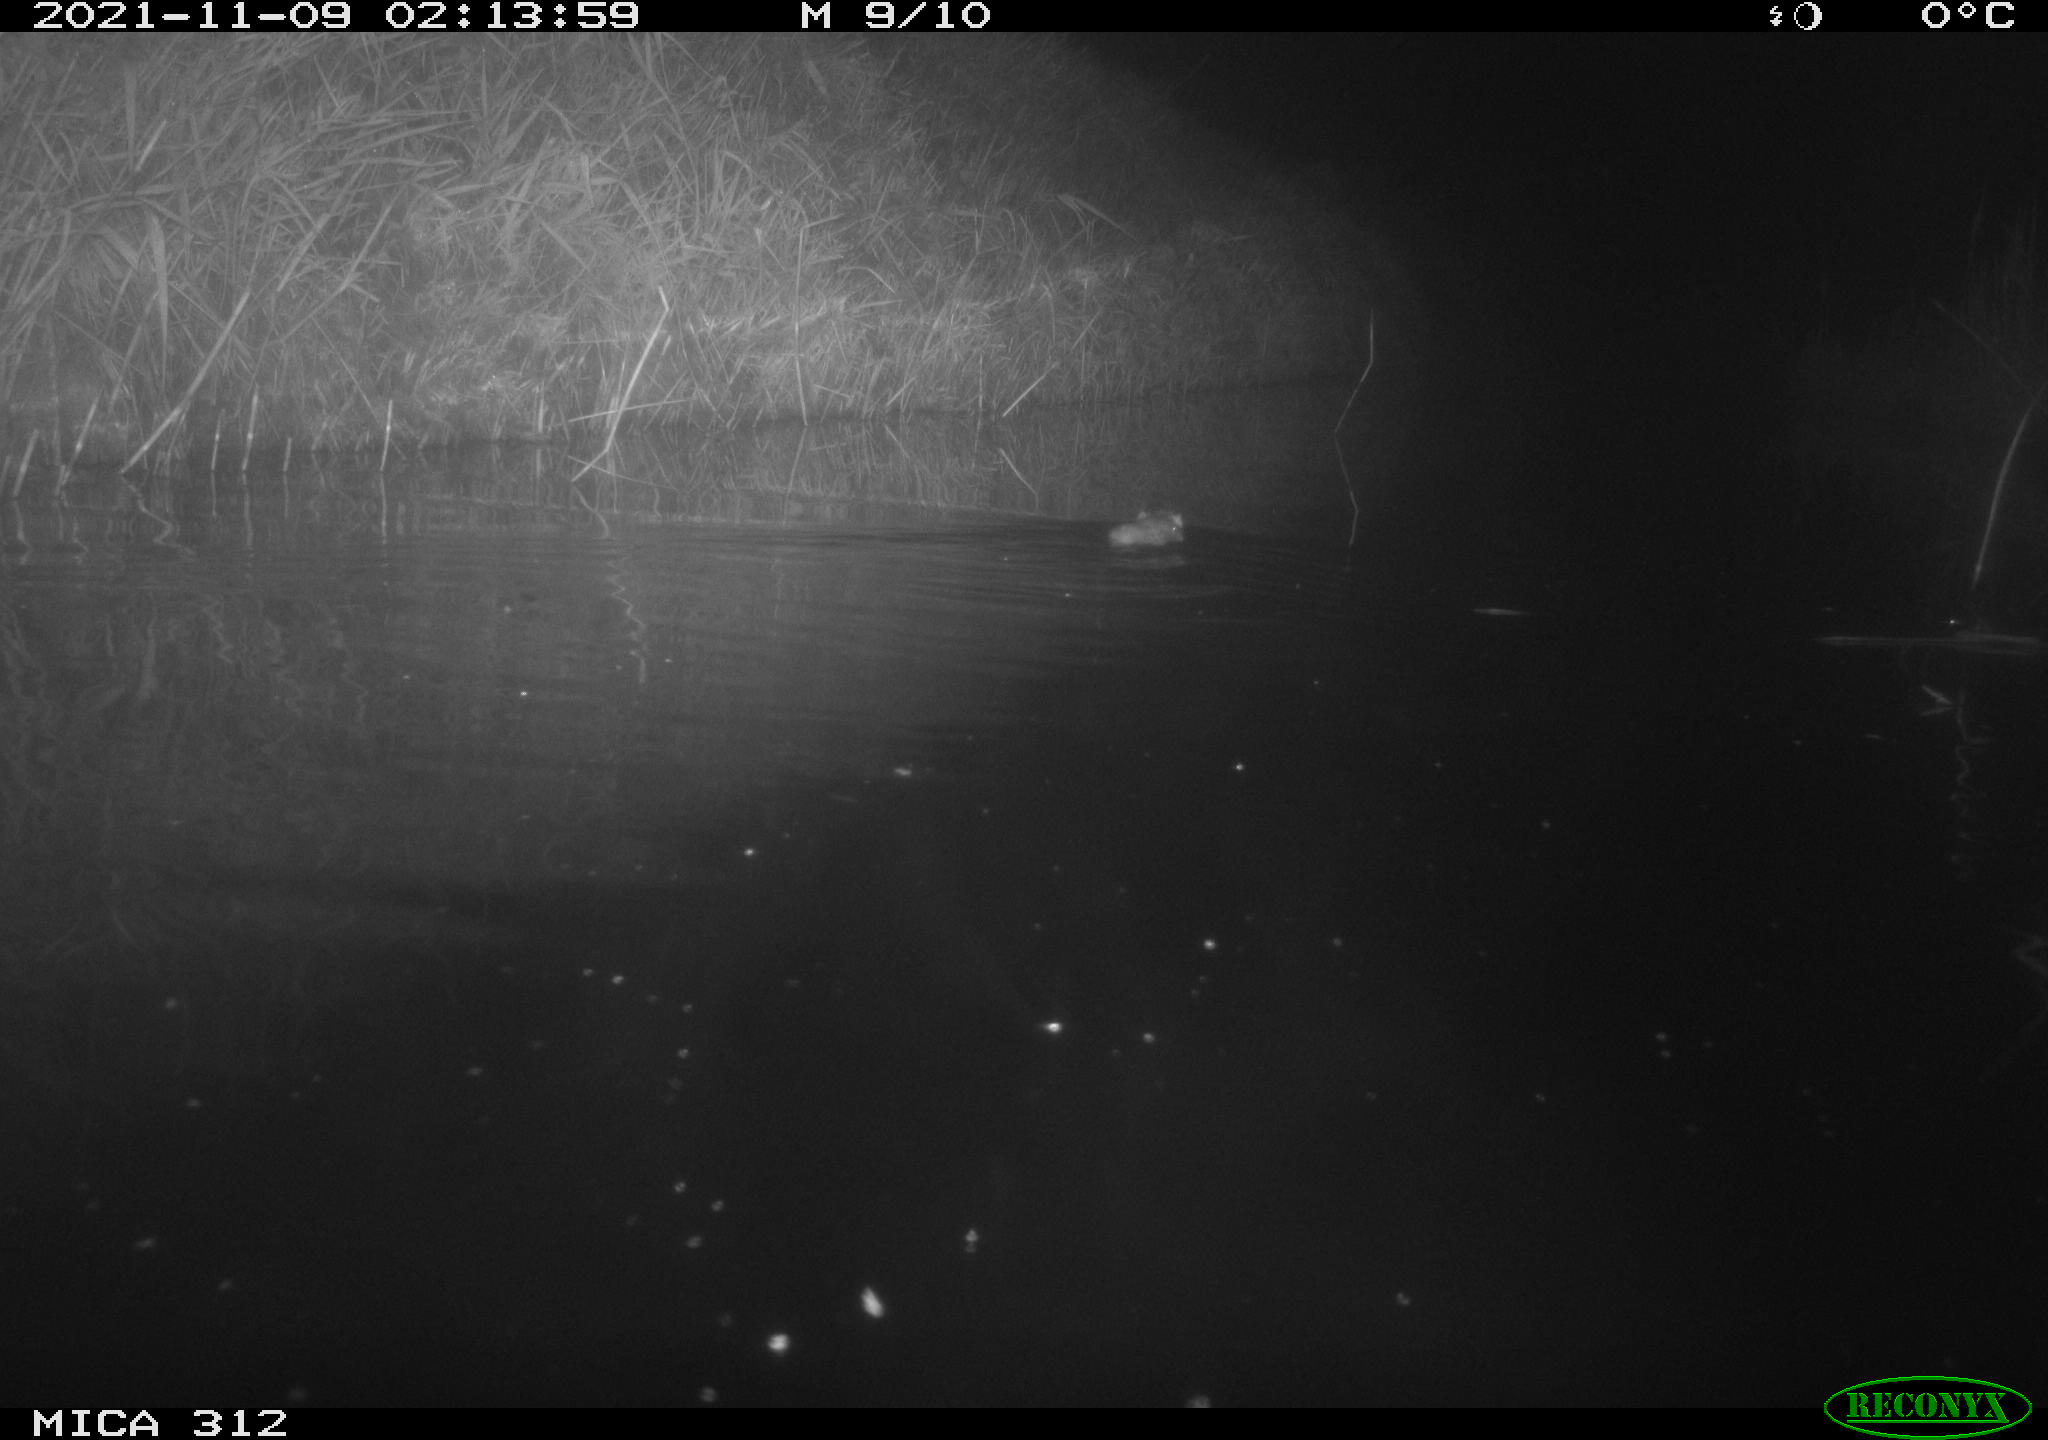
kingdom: Animalia
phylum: Chordata
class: Mammalia
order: Rodentia
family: Muridae
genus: Rattus
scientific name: Rattus norvegicus
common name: Brown rat
